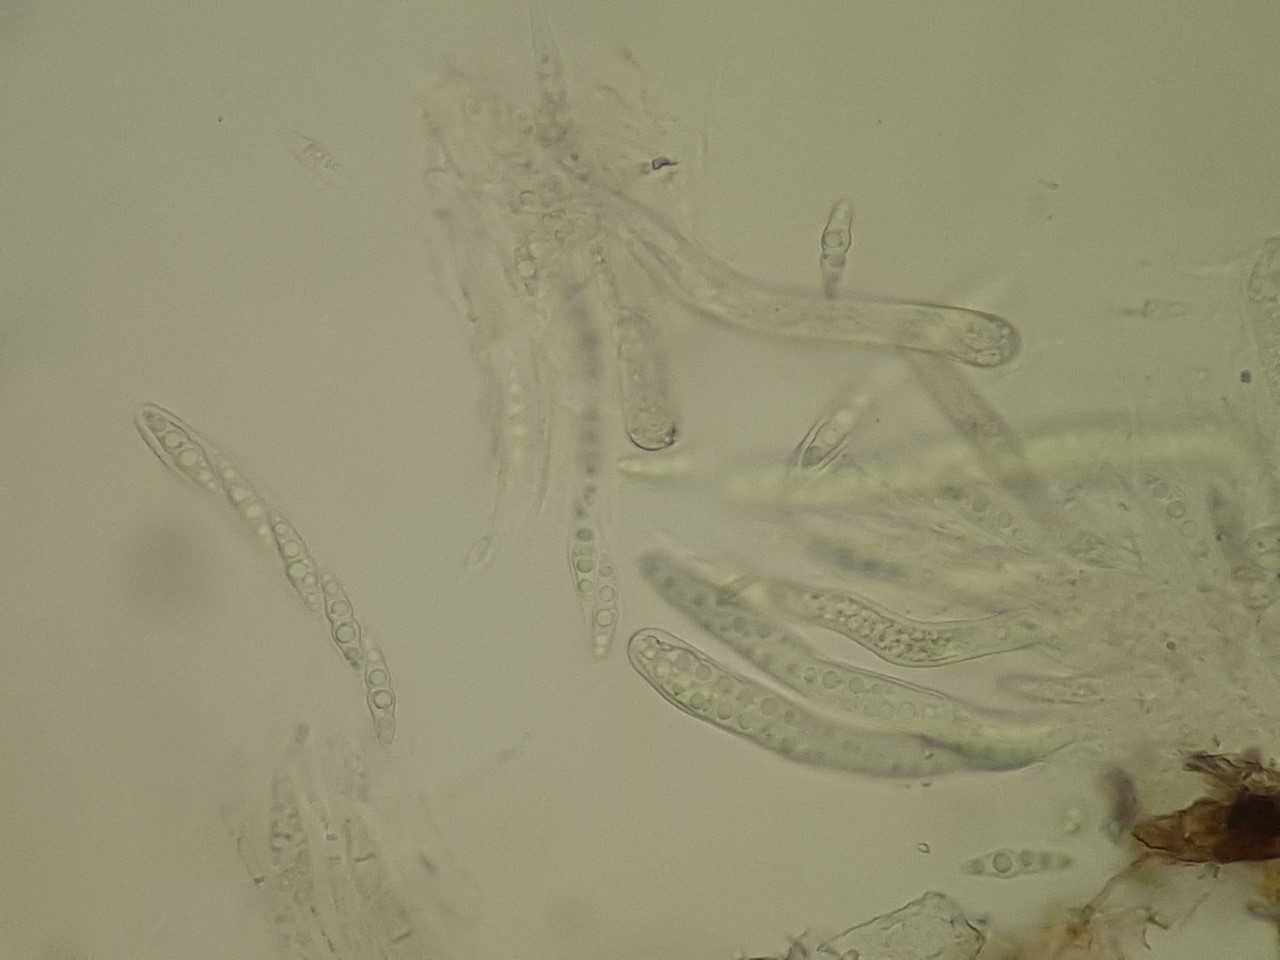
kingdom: Fungi
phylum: Ascomycota
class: Dothideomycetes
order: Pleosporales
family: Lophiotremataceae
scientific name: Lophiotremataceae
